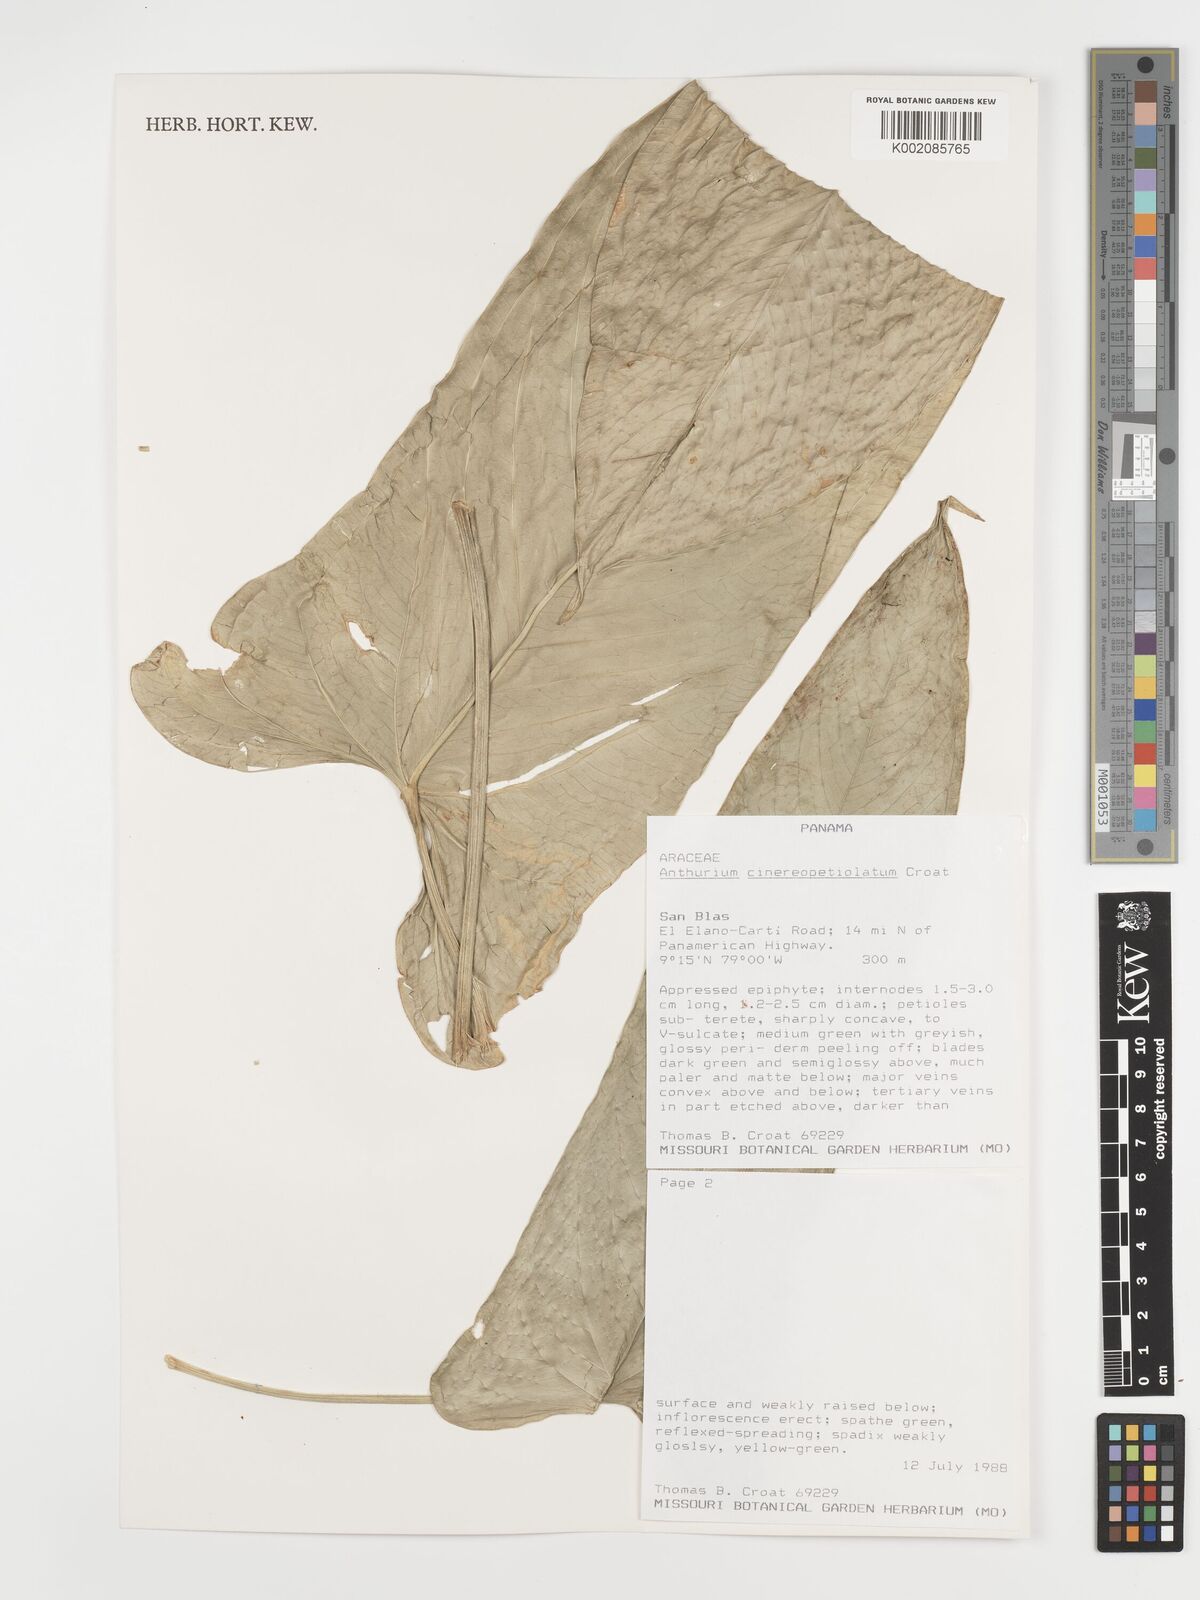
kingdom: Plantae
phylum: Tracheophyta
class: Liliopsida
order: Alismatales
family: Araceae
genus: Anthurium
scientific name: Anthurium cinereopetiolatum
